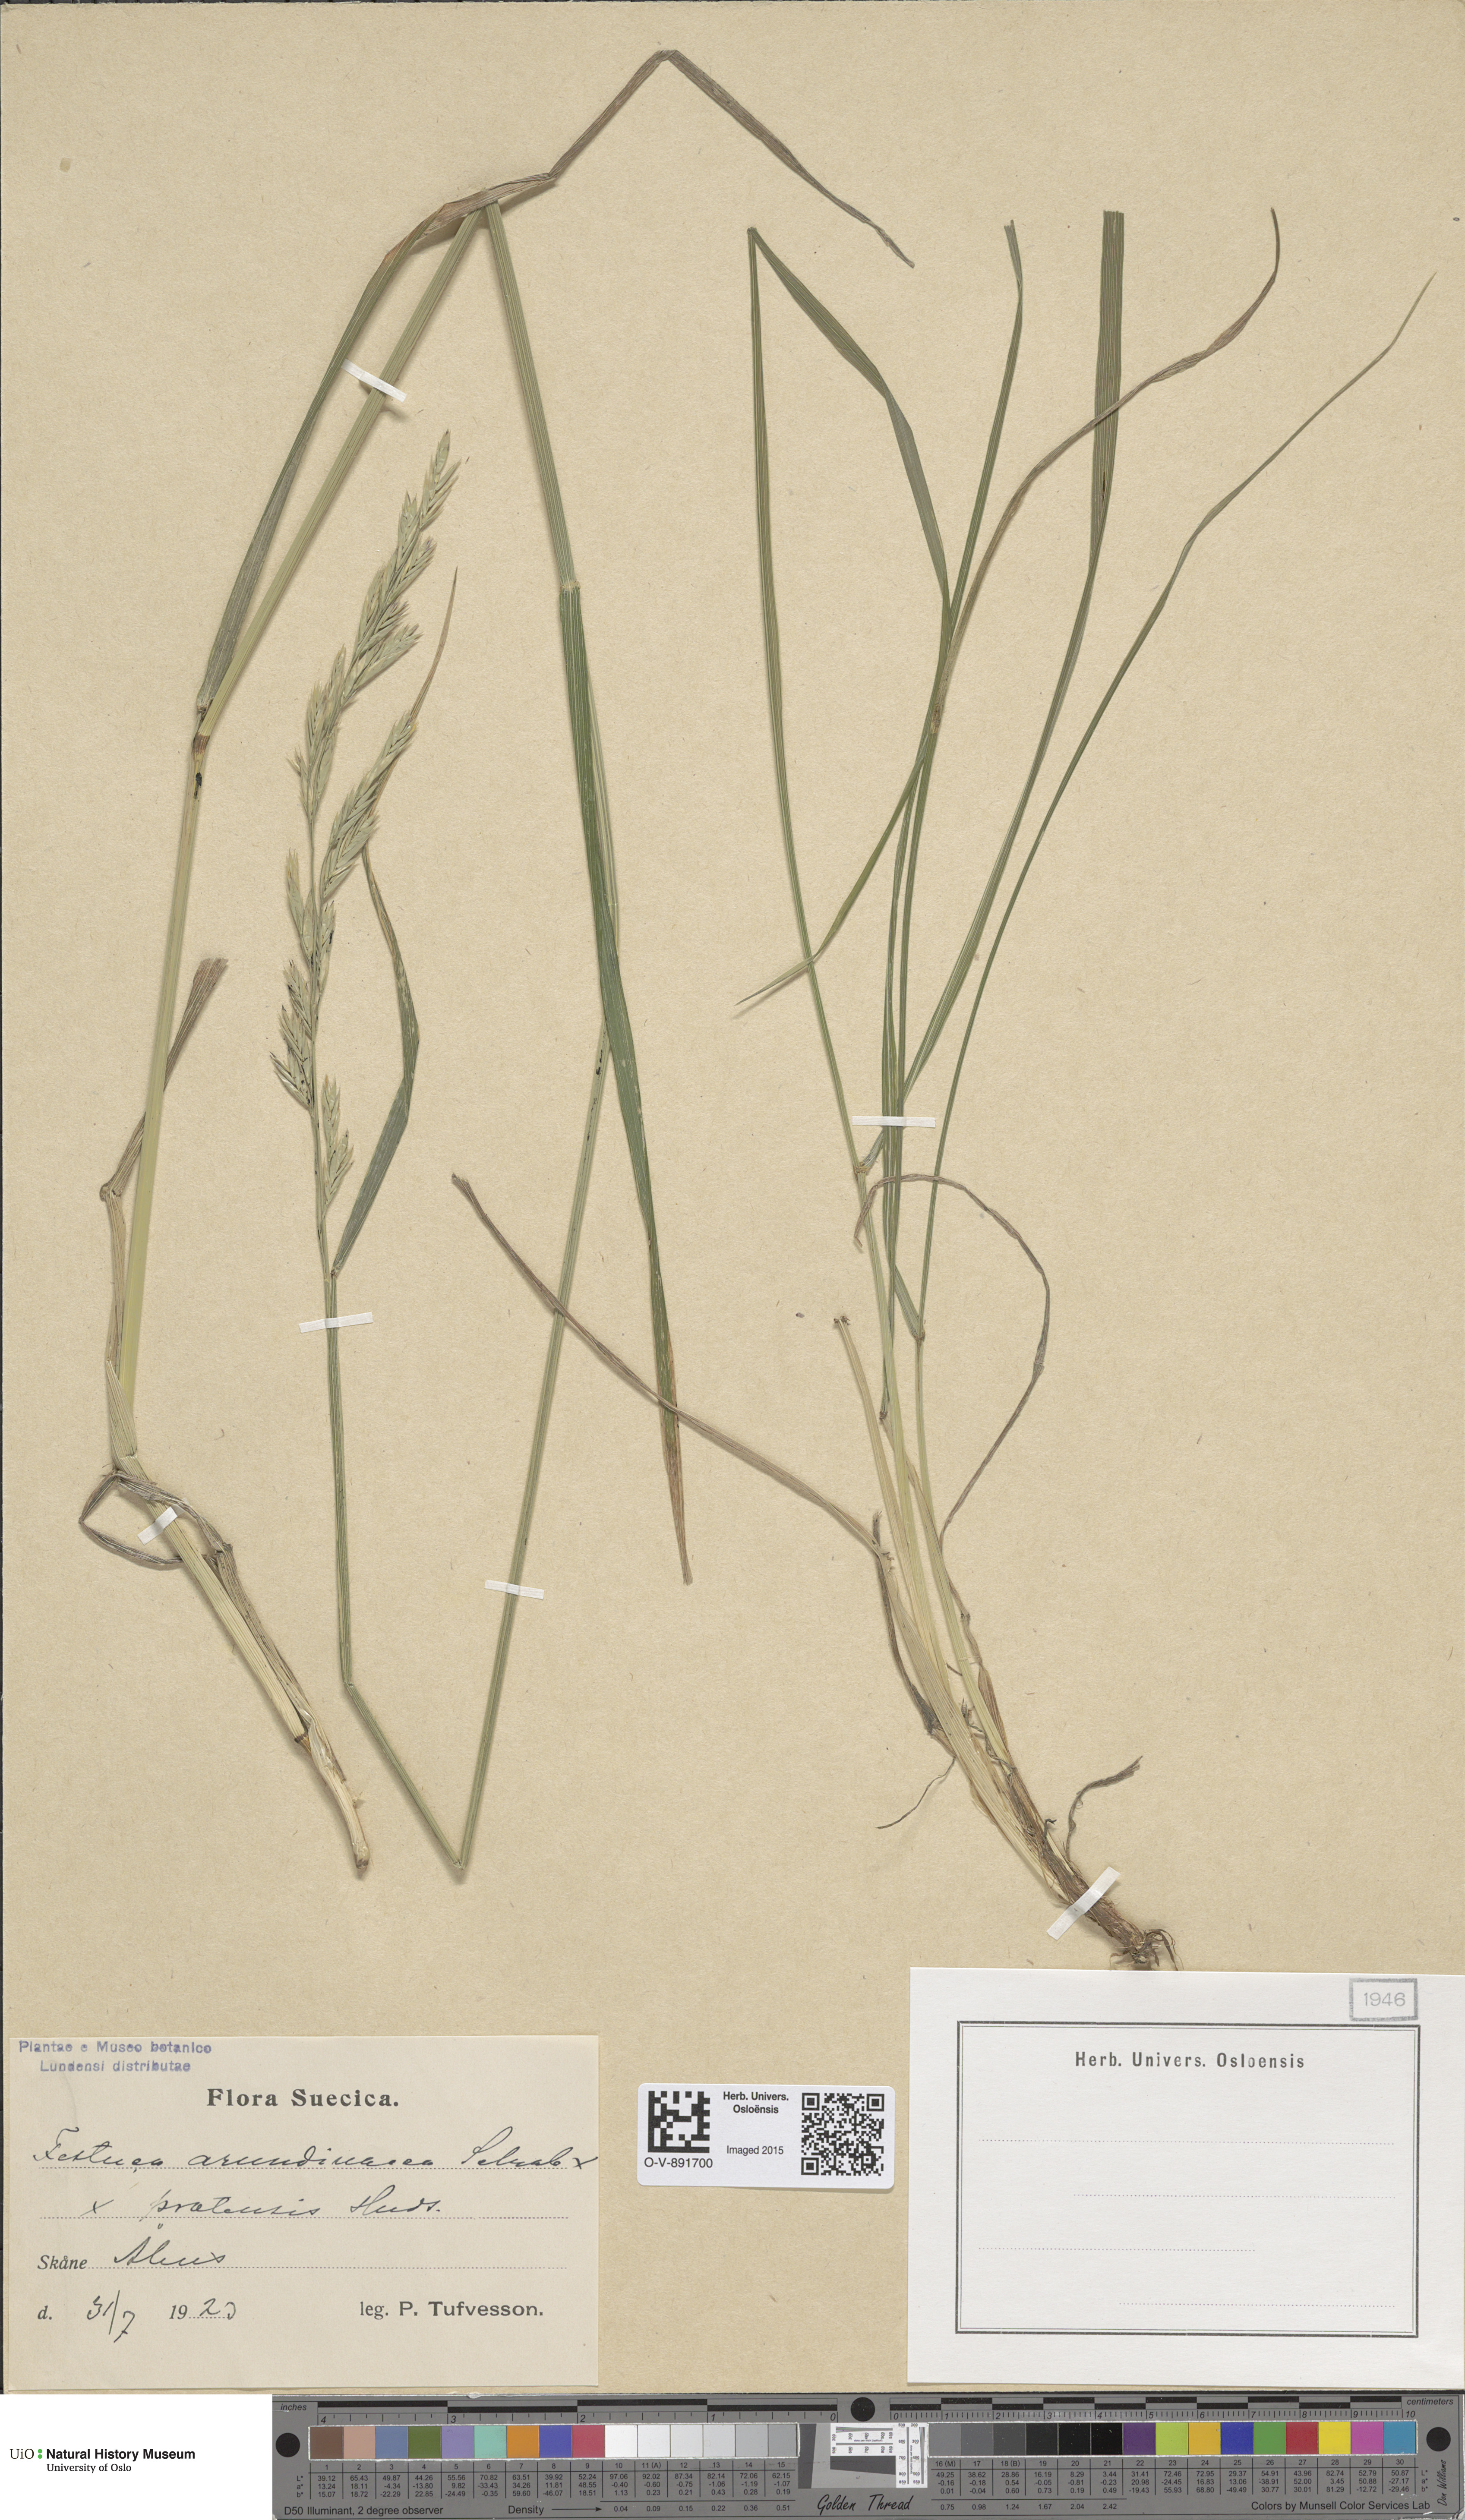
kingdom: Plantae
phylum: Tracheophyta
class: Liliopsida
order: Poales
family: Poaceae
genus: Lolium
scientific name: Lolium
